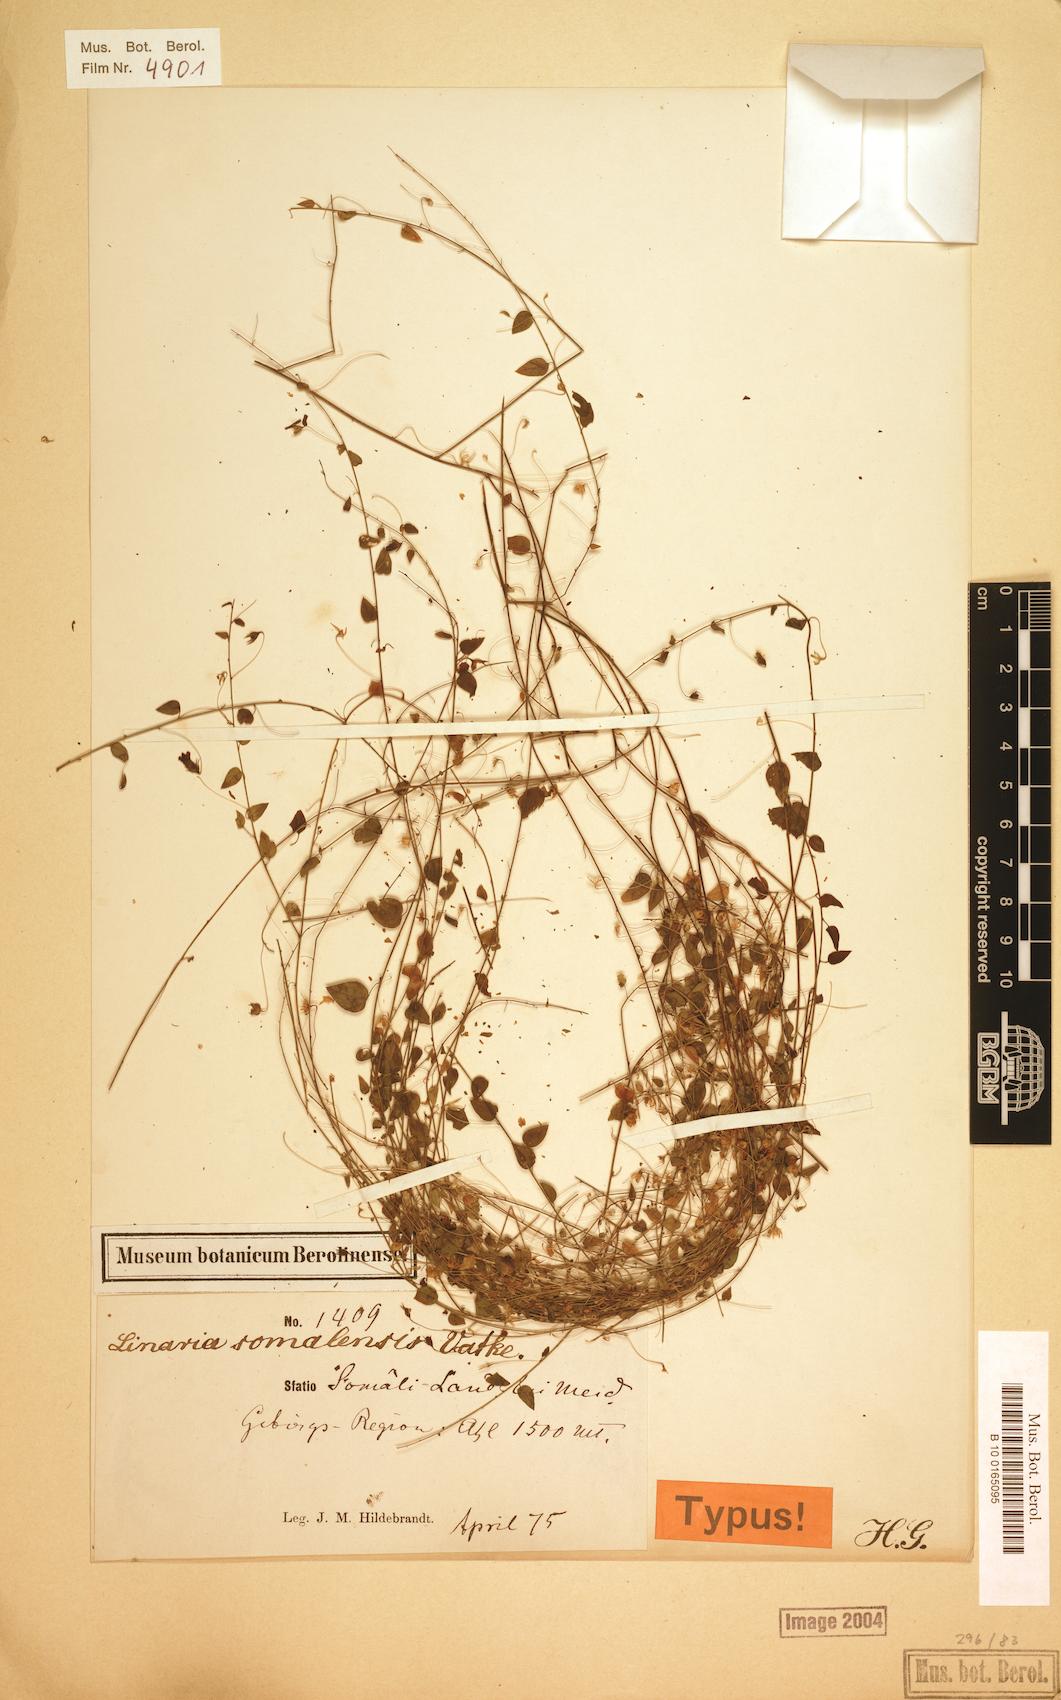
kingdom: Plantae
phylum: Tracheophyta
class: Magnoliopsida
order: Lamiales
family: Plantaginaceae
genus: Nanorrhinum
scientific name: Nanorrhinum ramosissimum
